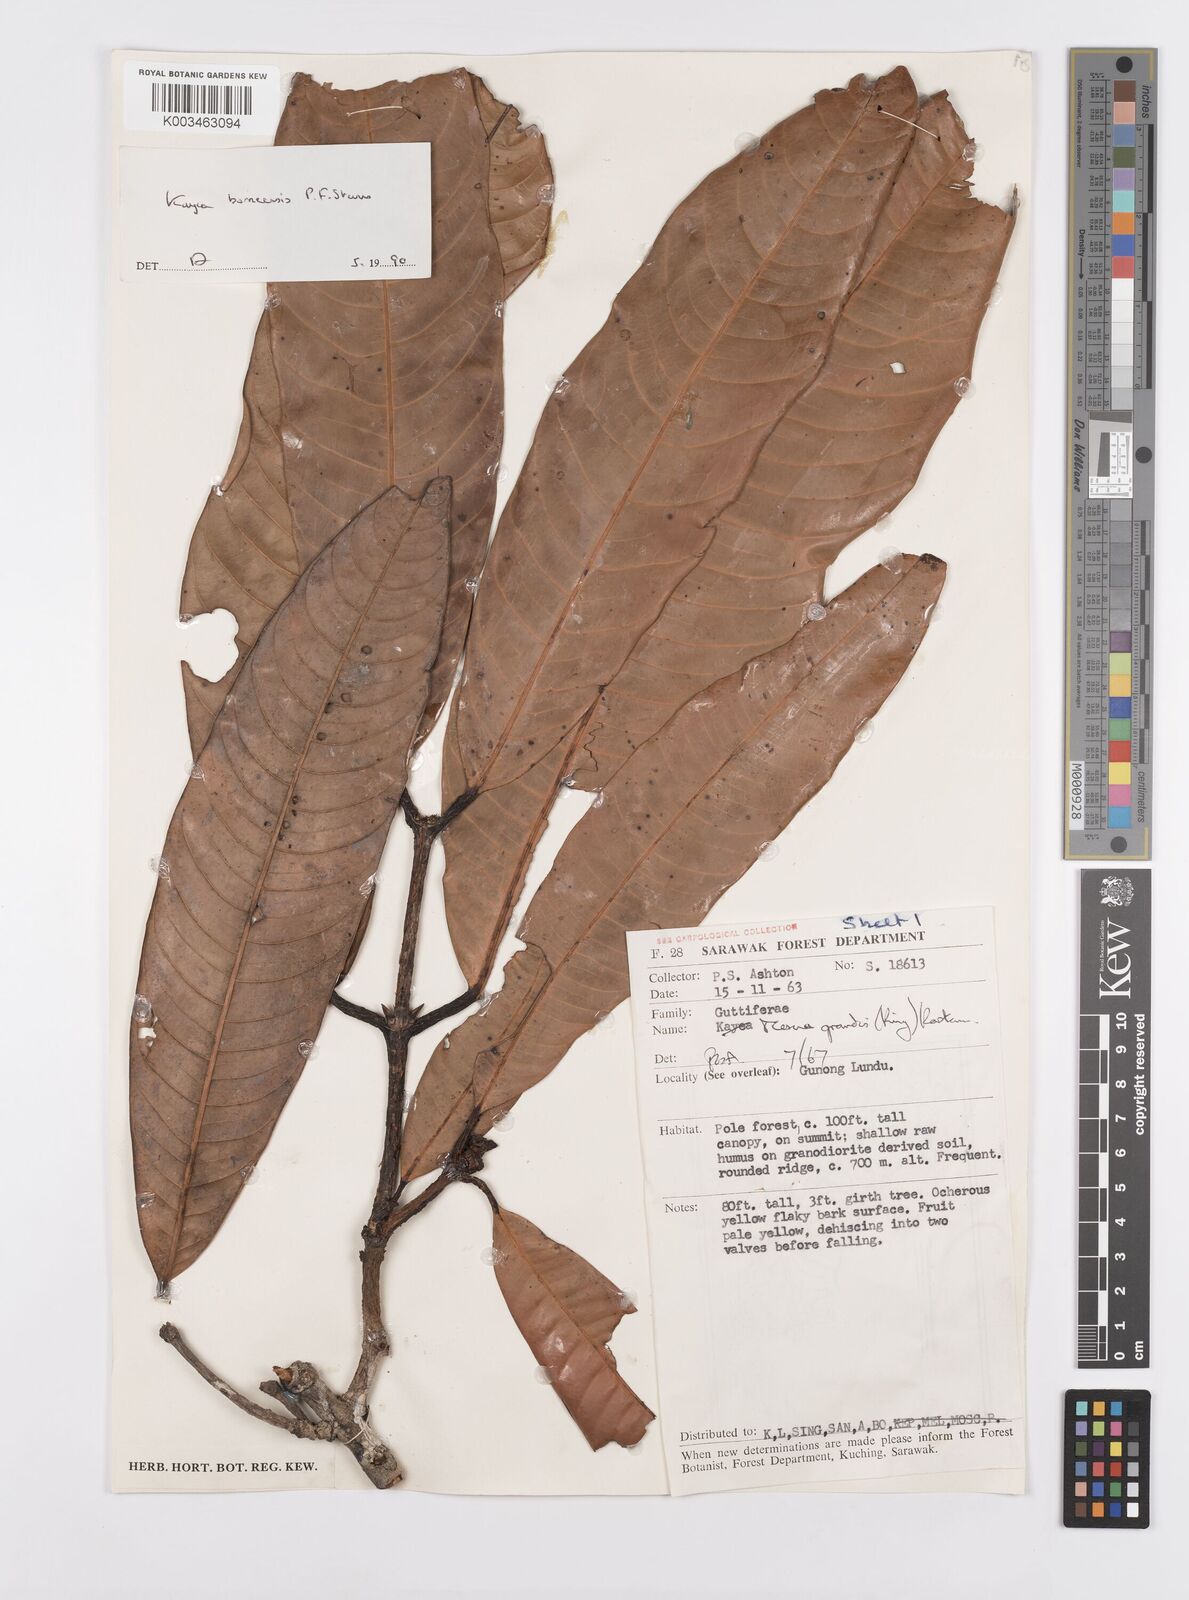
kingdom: Plantae
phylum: Tracheophyta
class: Magnoliopsida
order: Malpighiales
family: Calophyllaceae
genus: Kayea
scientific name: Kayea borneensis
